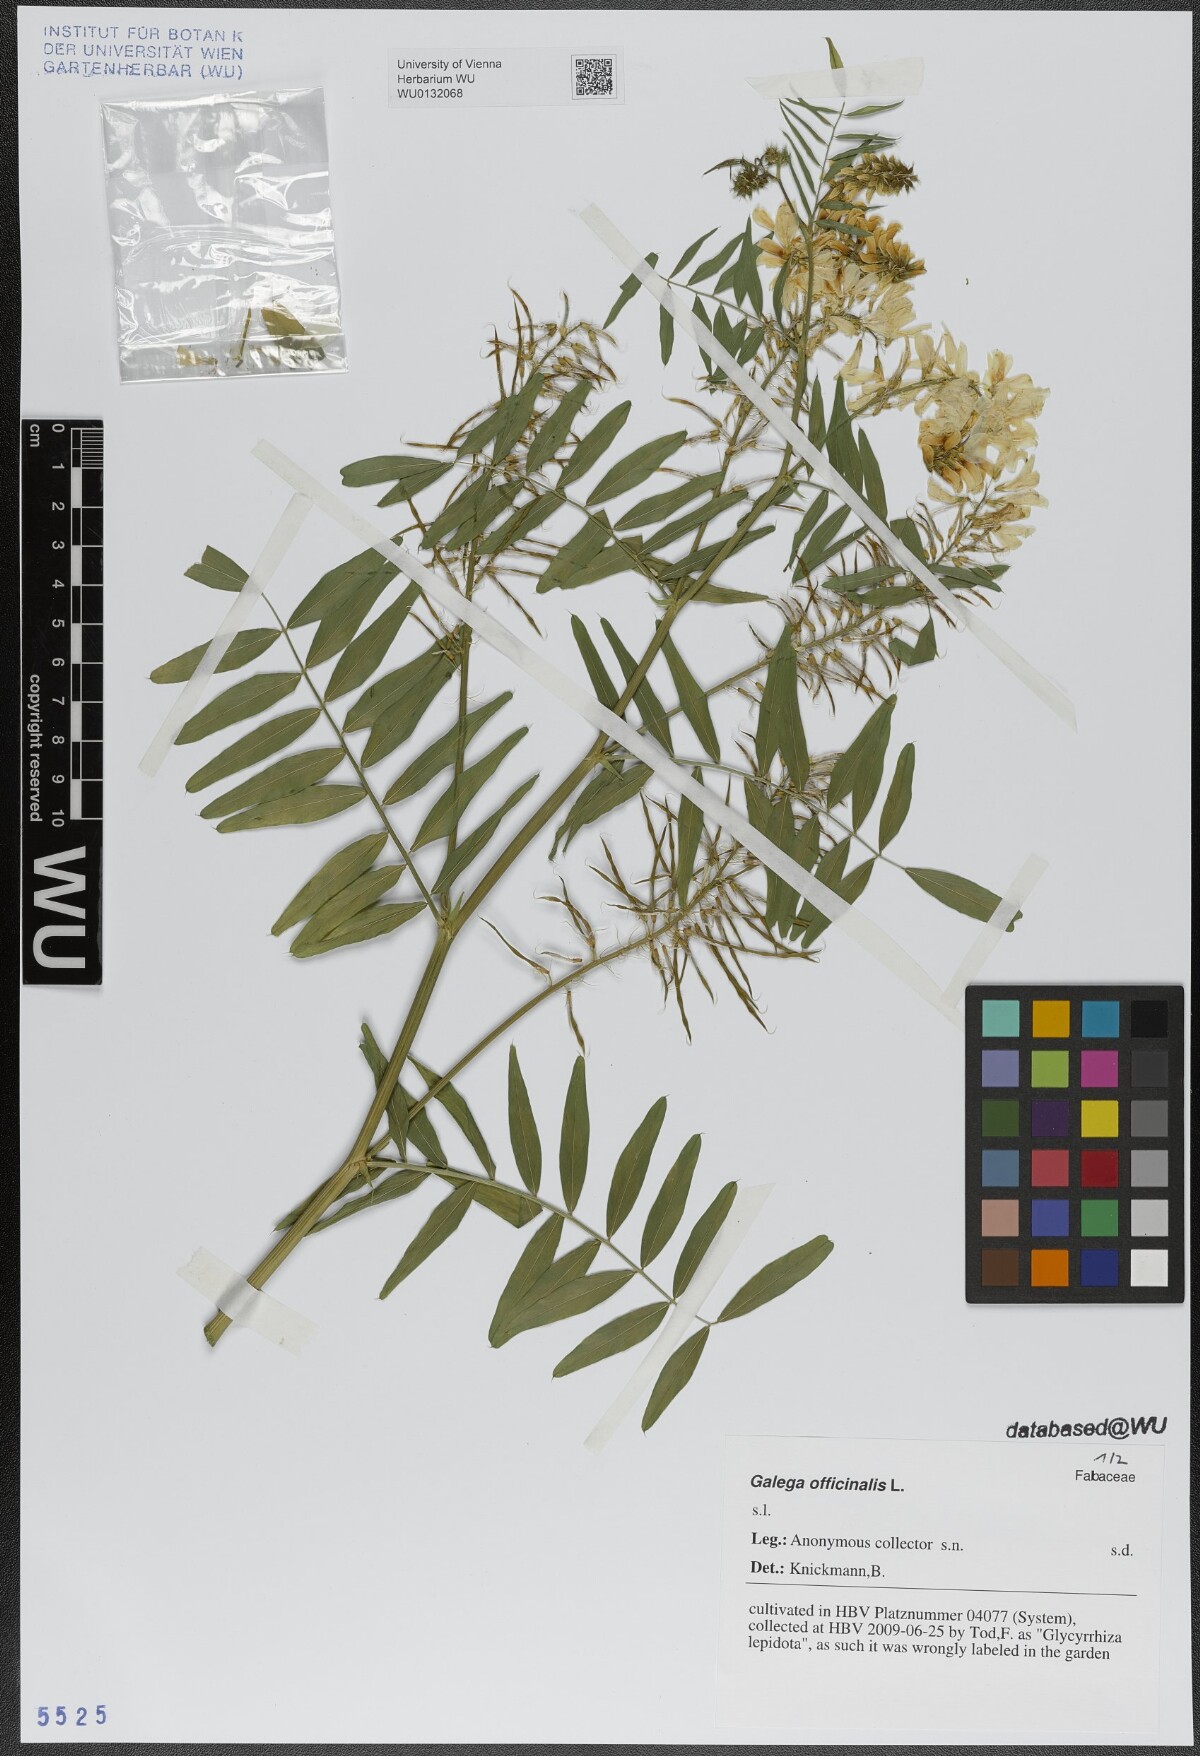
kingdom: Plantae
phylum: Tracheophyta
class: Magnoliopsida
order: Fabales
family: Fabaceae
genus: Galega
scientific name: Galega officinalis
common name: Goat's-rue
